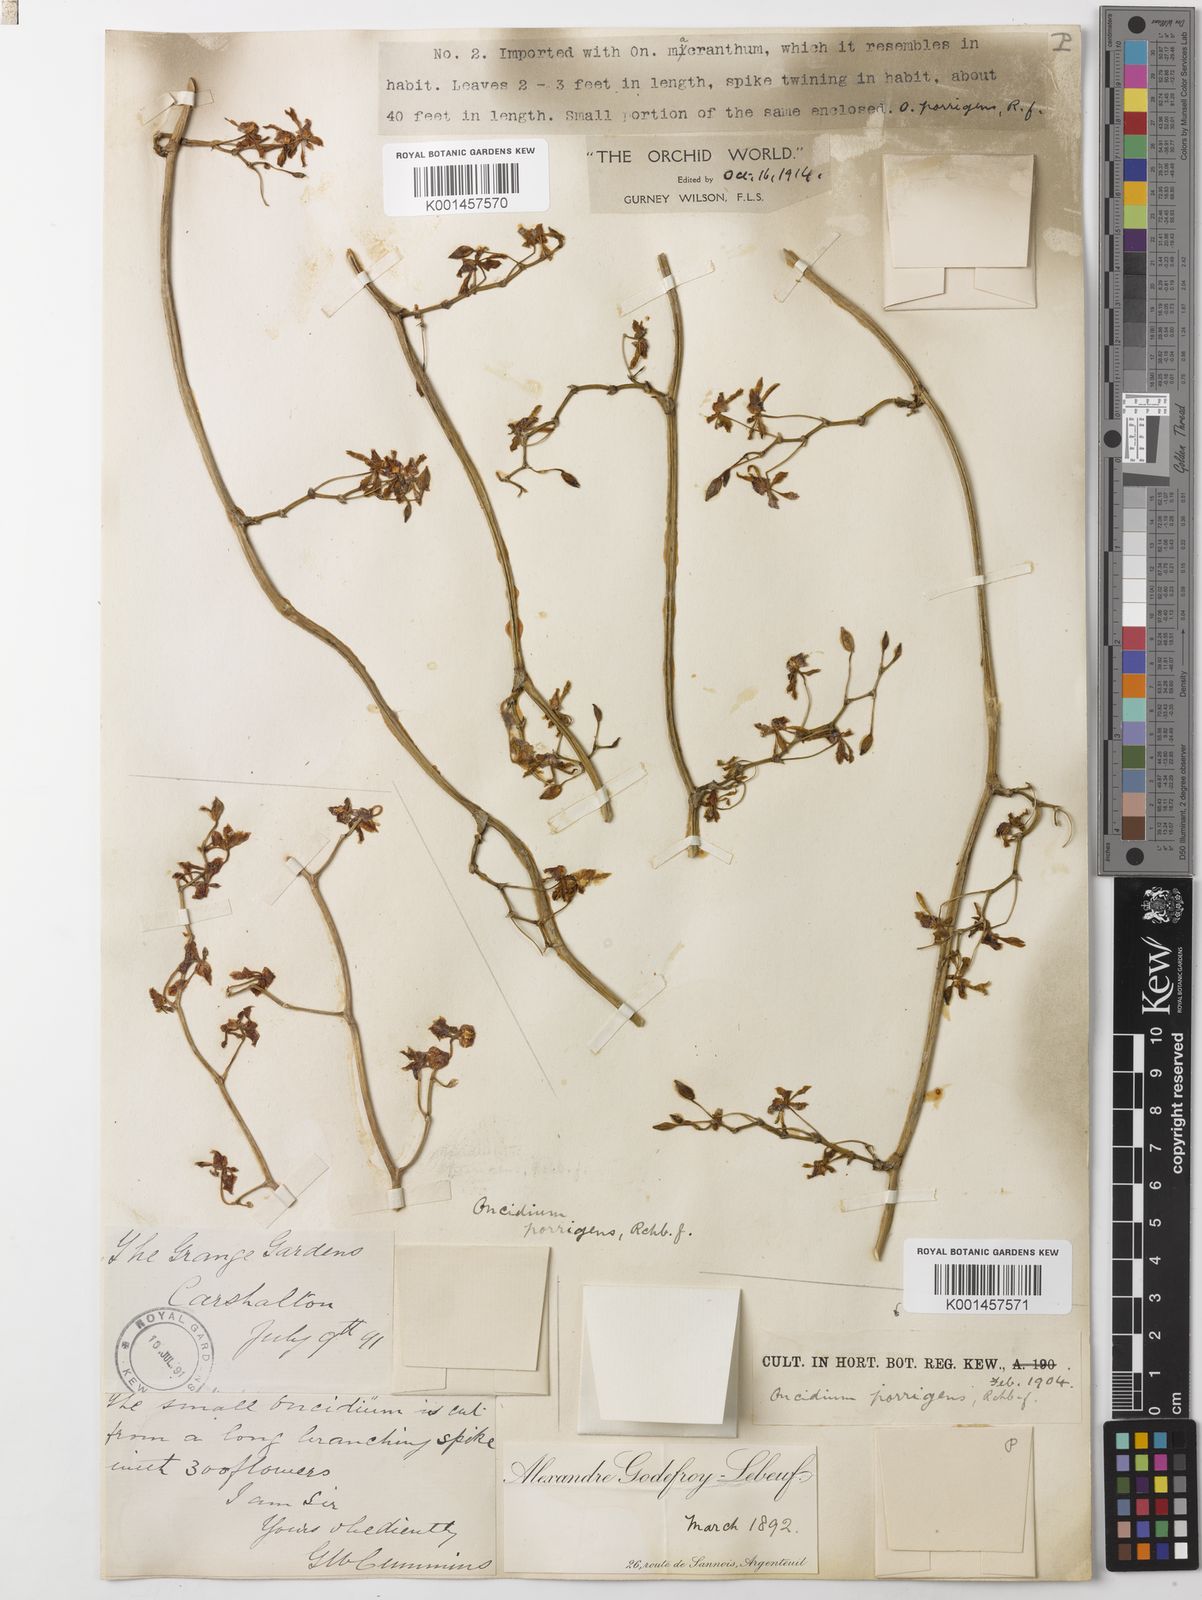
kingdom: Plantae
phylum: Tracheophyta
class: Liliopsida
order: Asparagales
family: Orchidaceae
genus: Cyrtochilum
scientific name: Cyrtochilum porrigens
